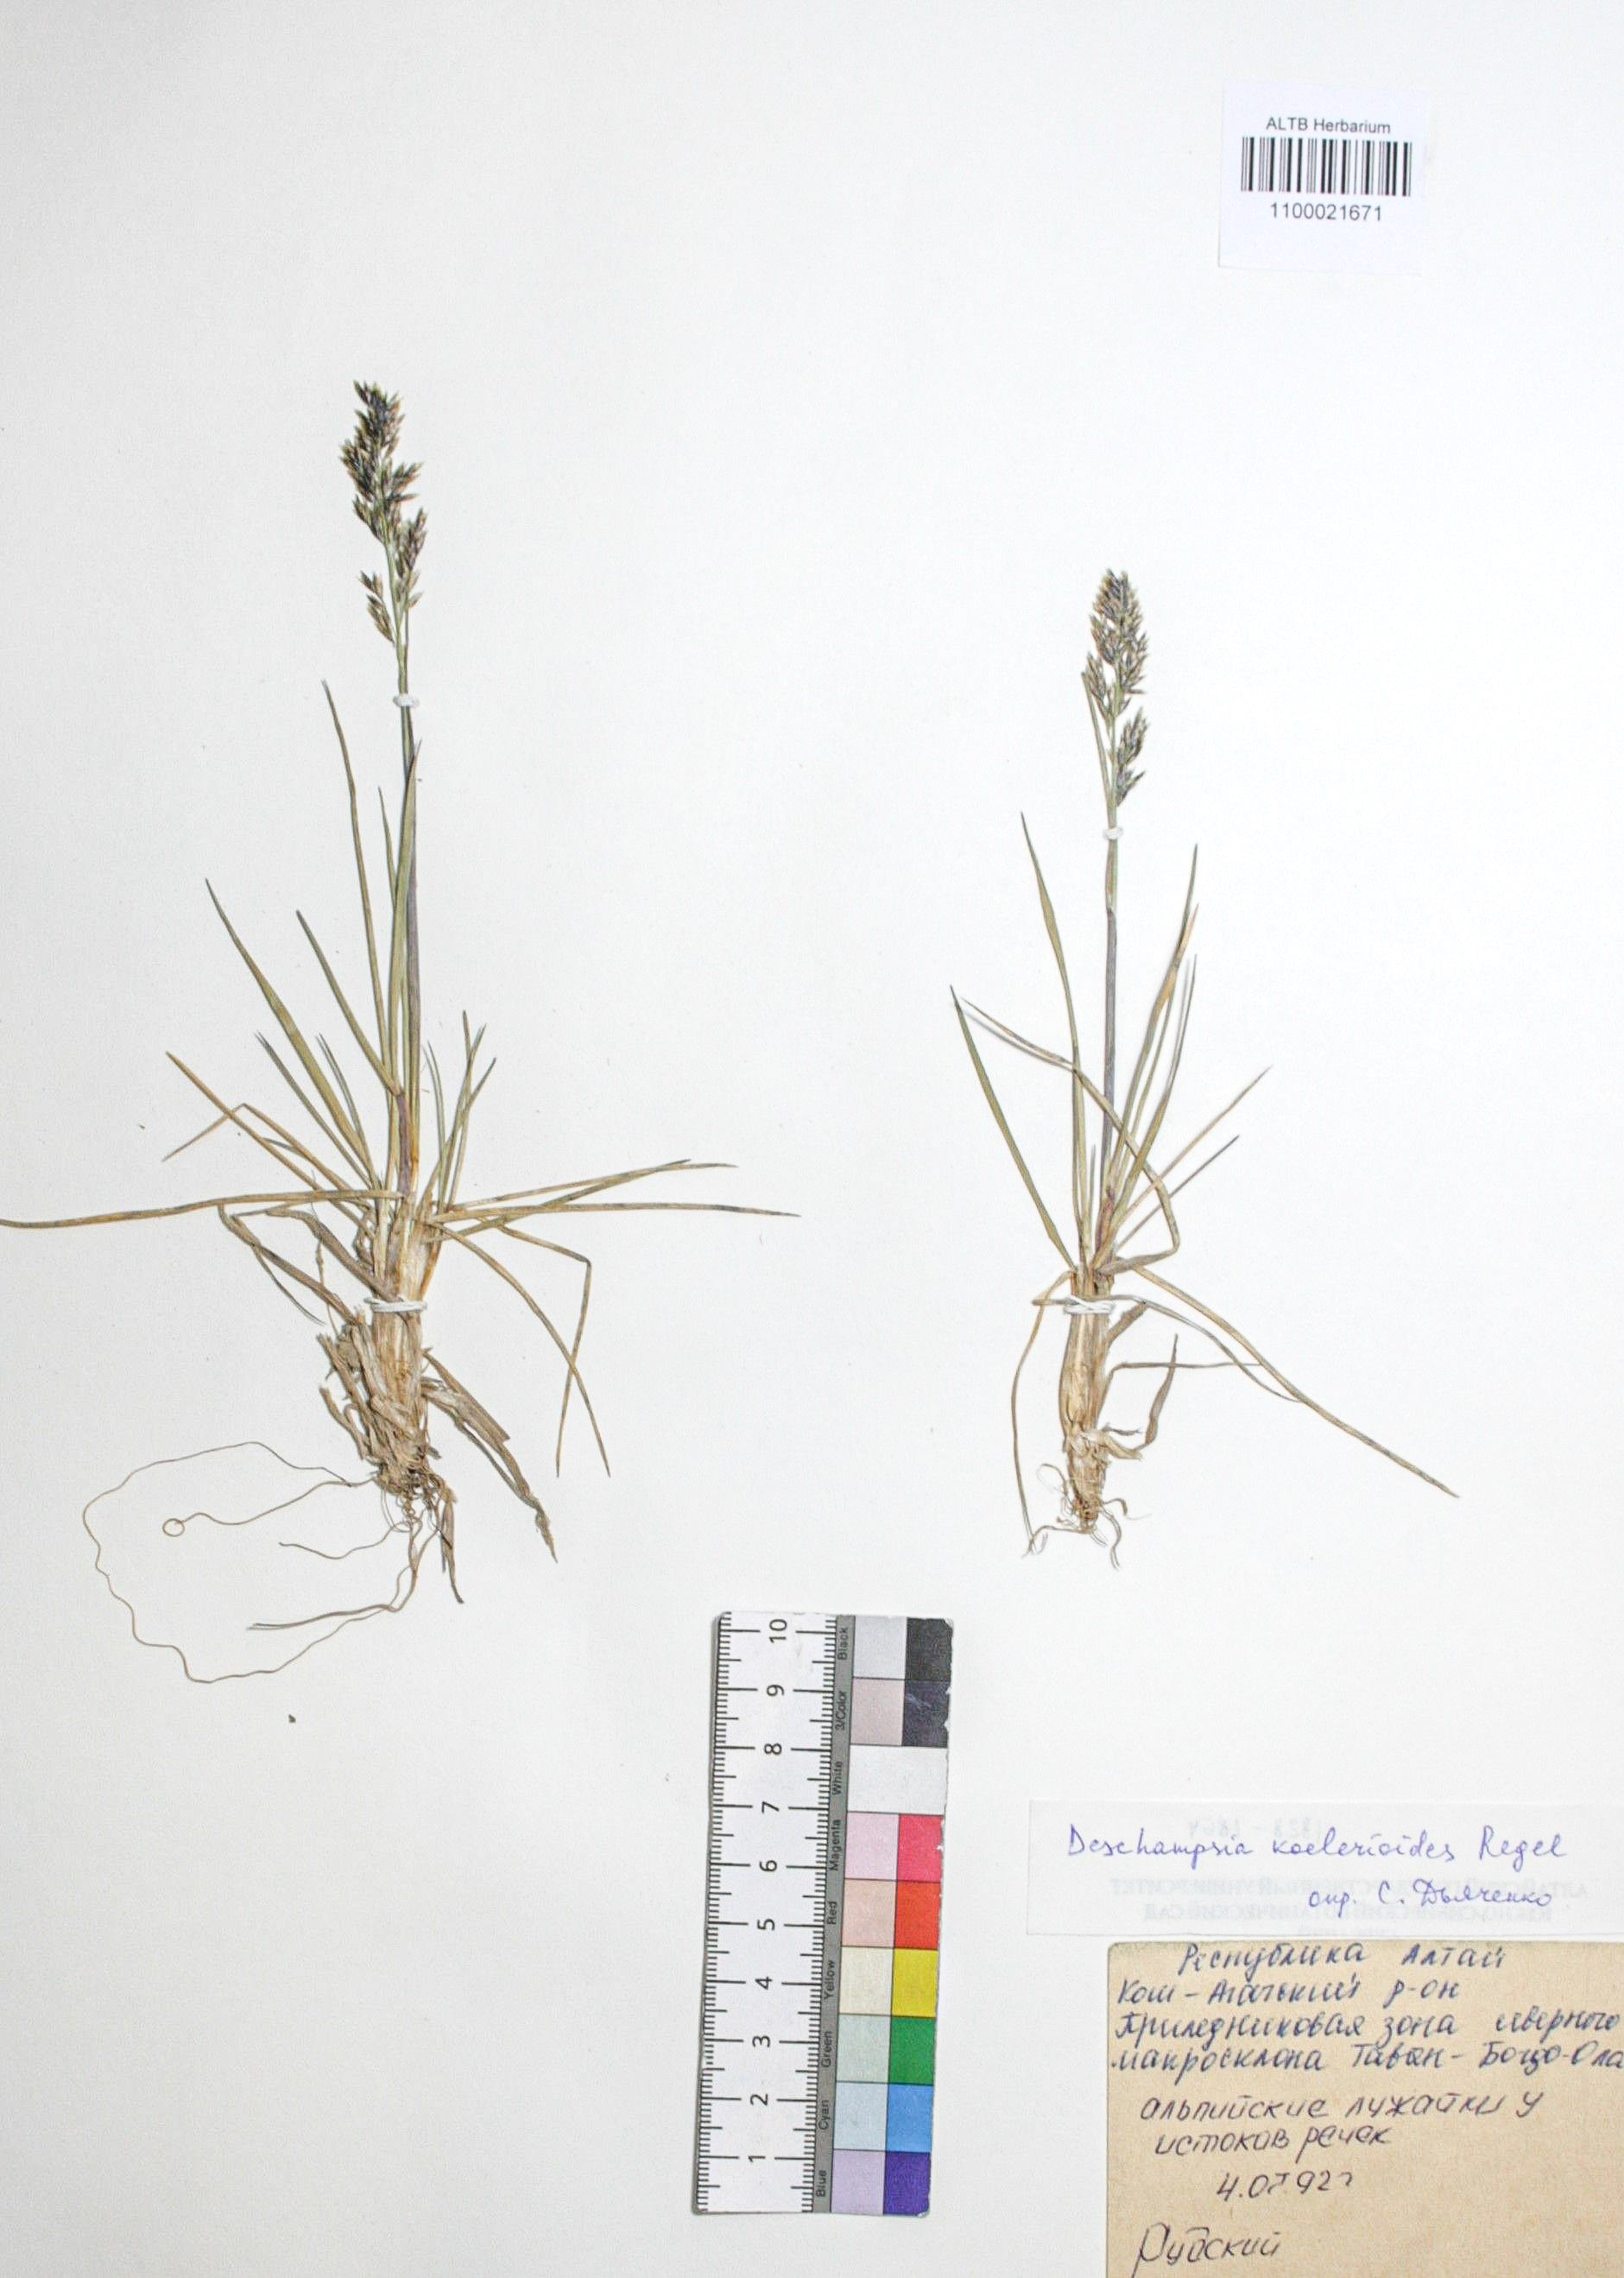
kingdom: Plantae
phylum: Tracheophyta
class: Liliopsida
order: Poales
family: Poaceae
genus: Deschampsia
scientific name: Deschampsia koelerioides
